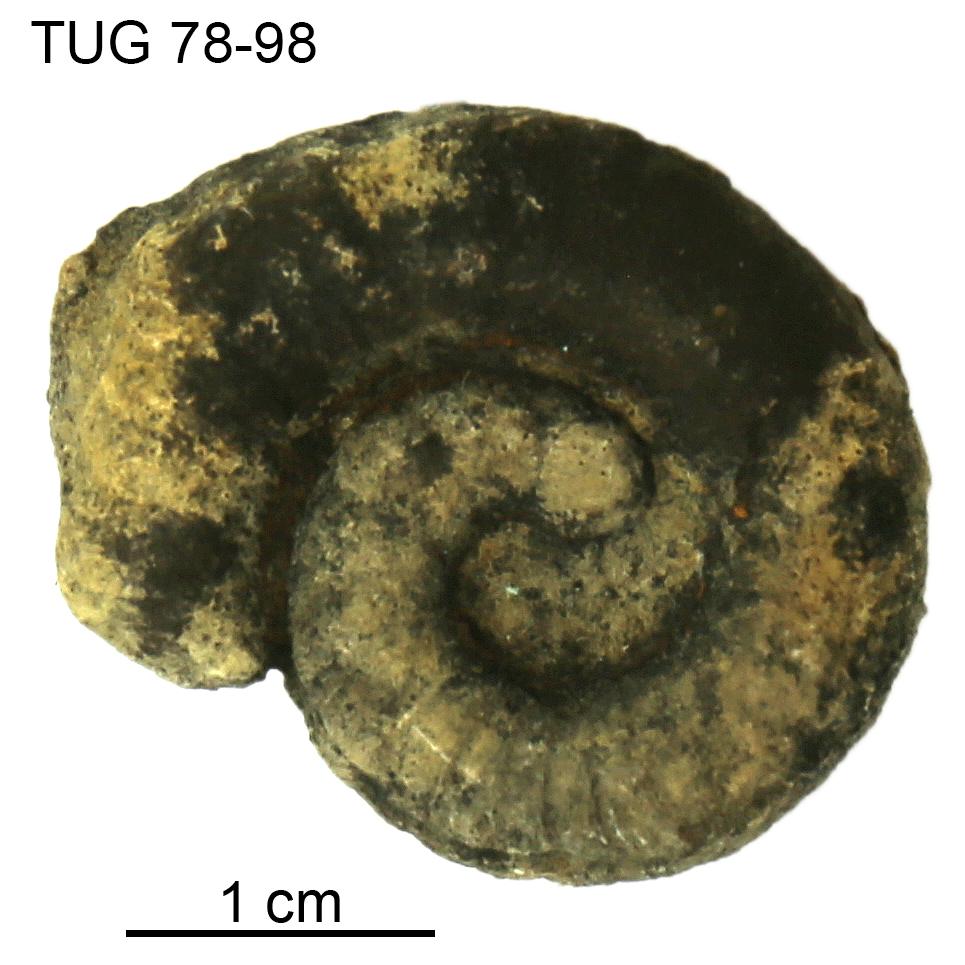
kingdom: Animalia
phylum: Mollusca
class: Cephalopoda
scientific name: Cephalopoda
